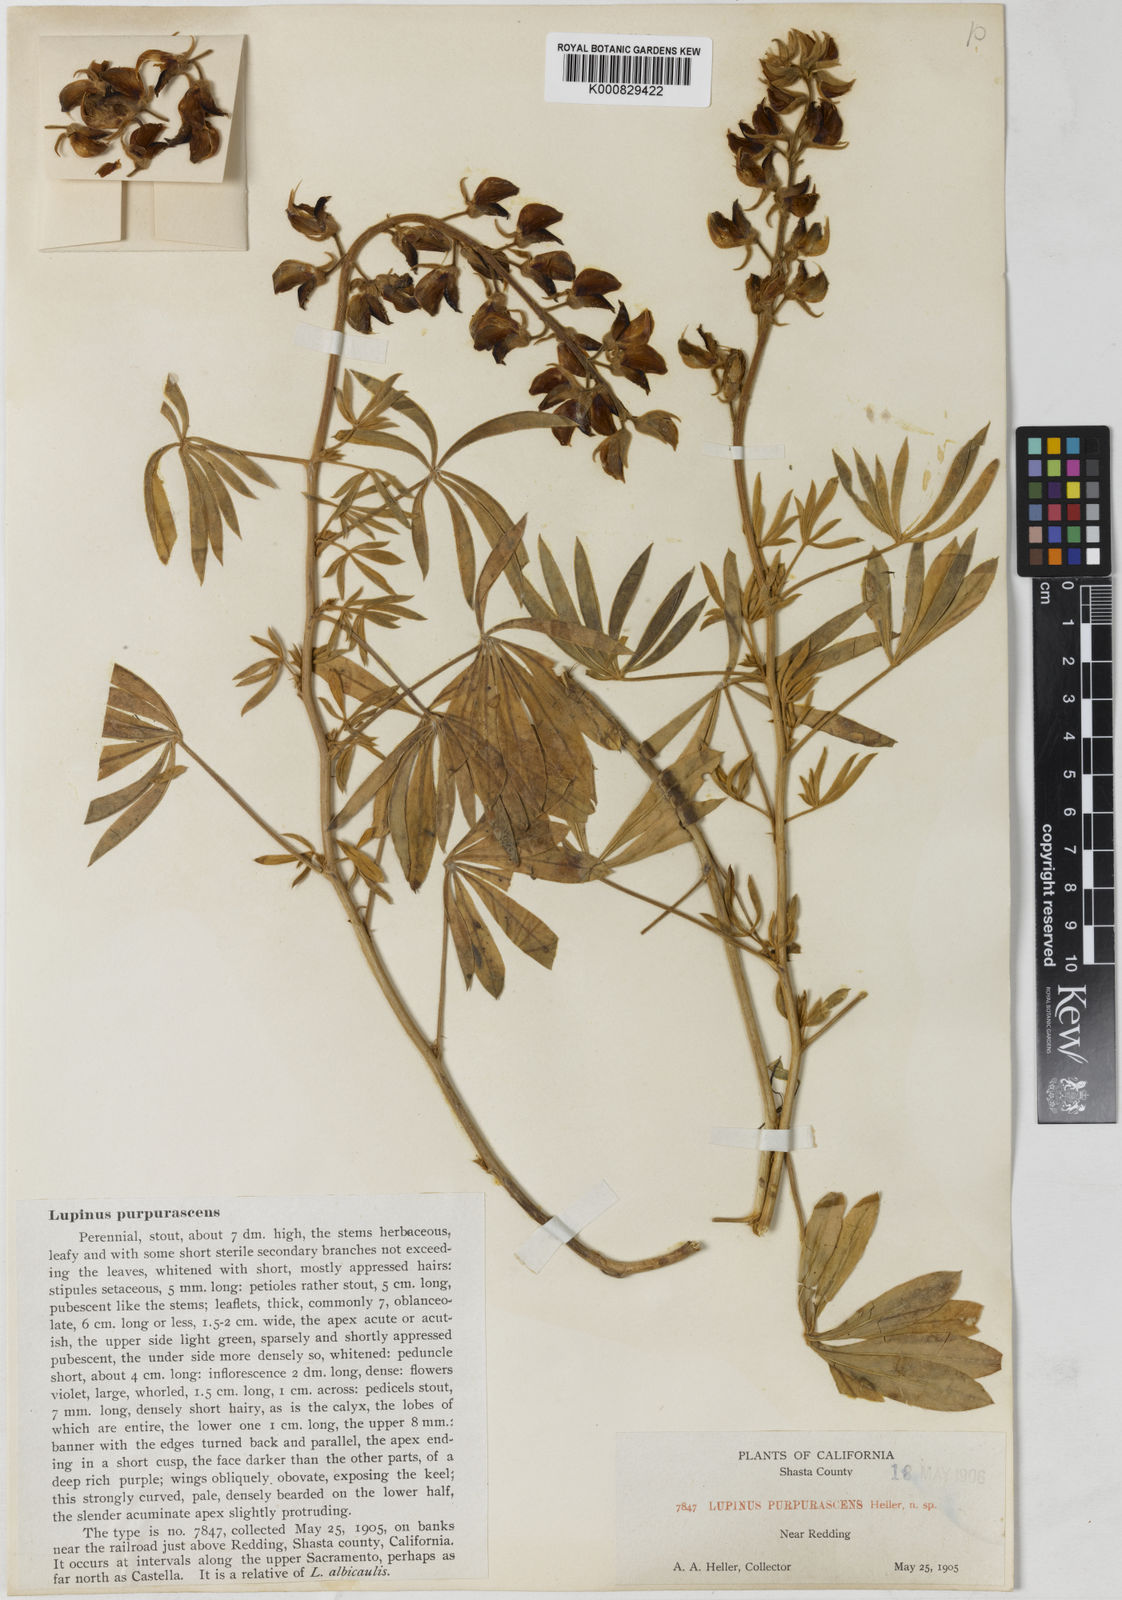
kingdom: Plantae
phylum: Tracheophyta
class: Magnoliopsida
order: Fabales
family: Fabaceae
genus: Lupinus
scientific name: Lupinus
